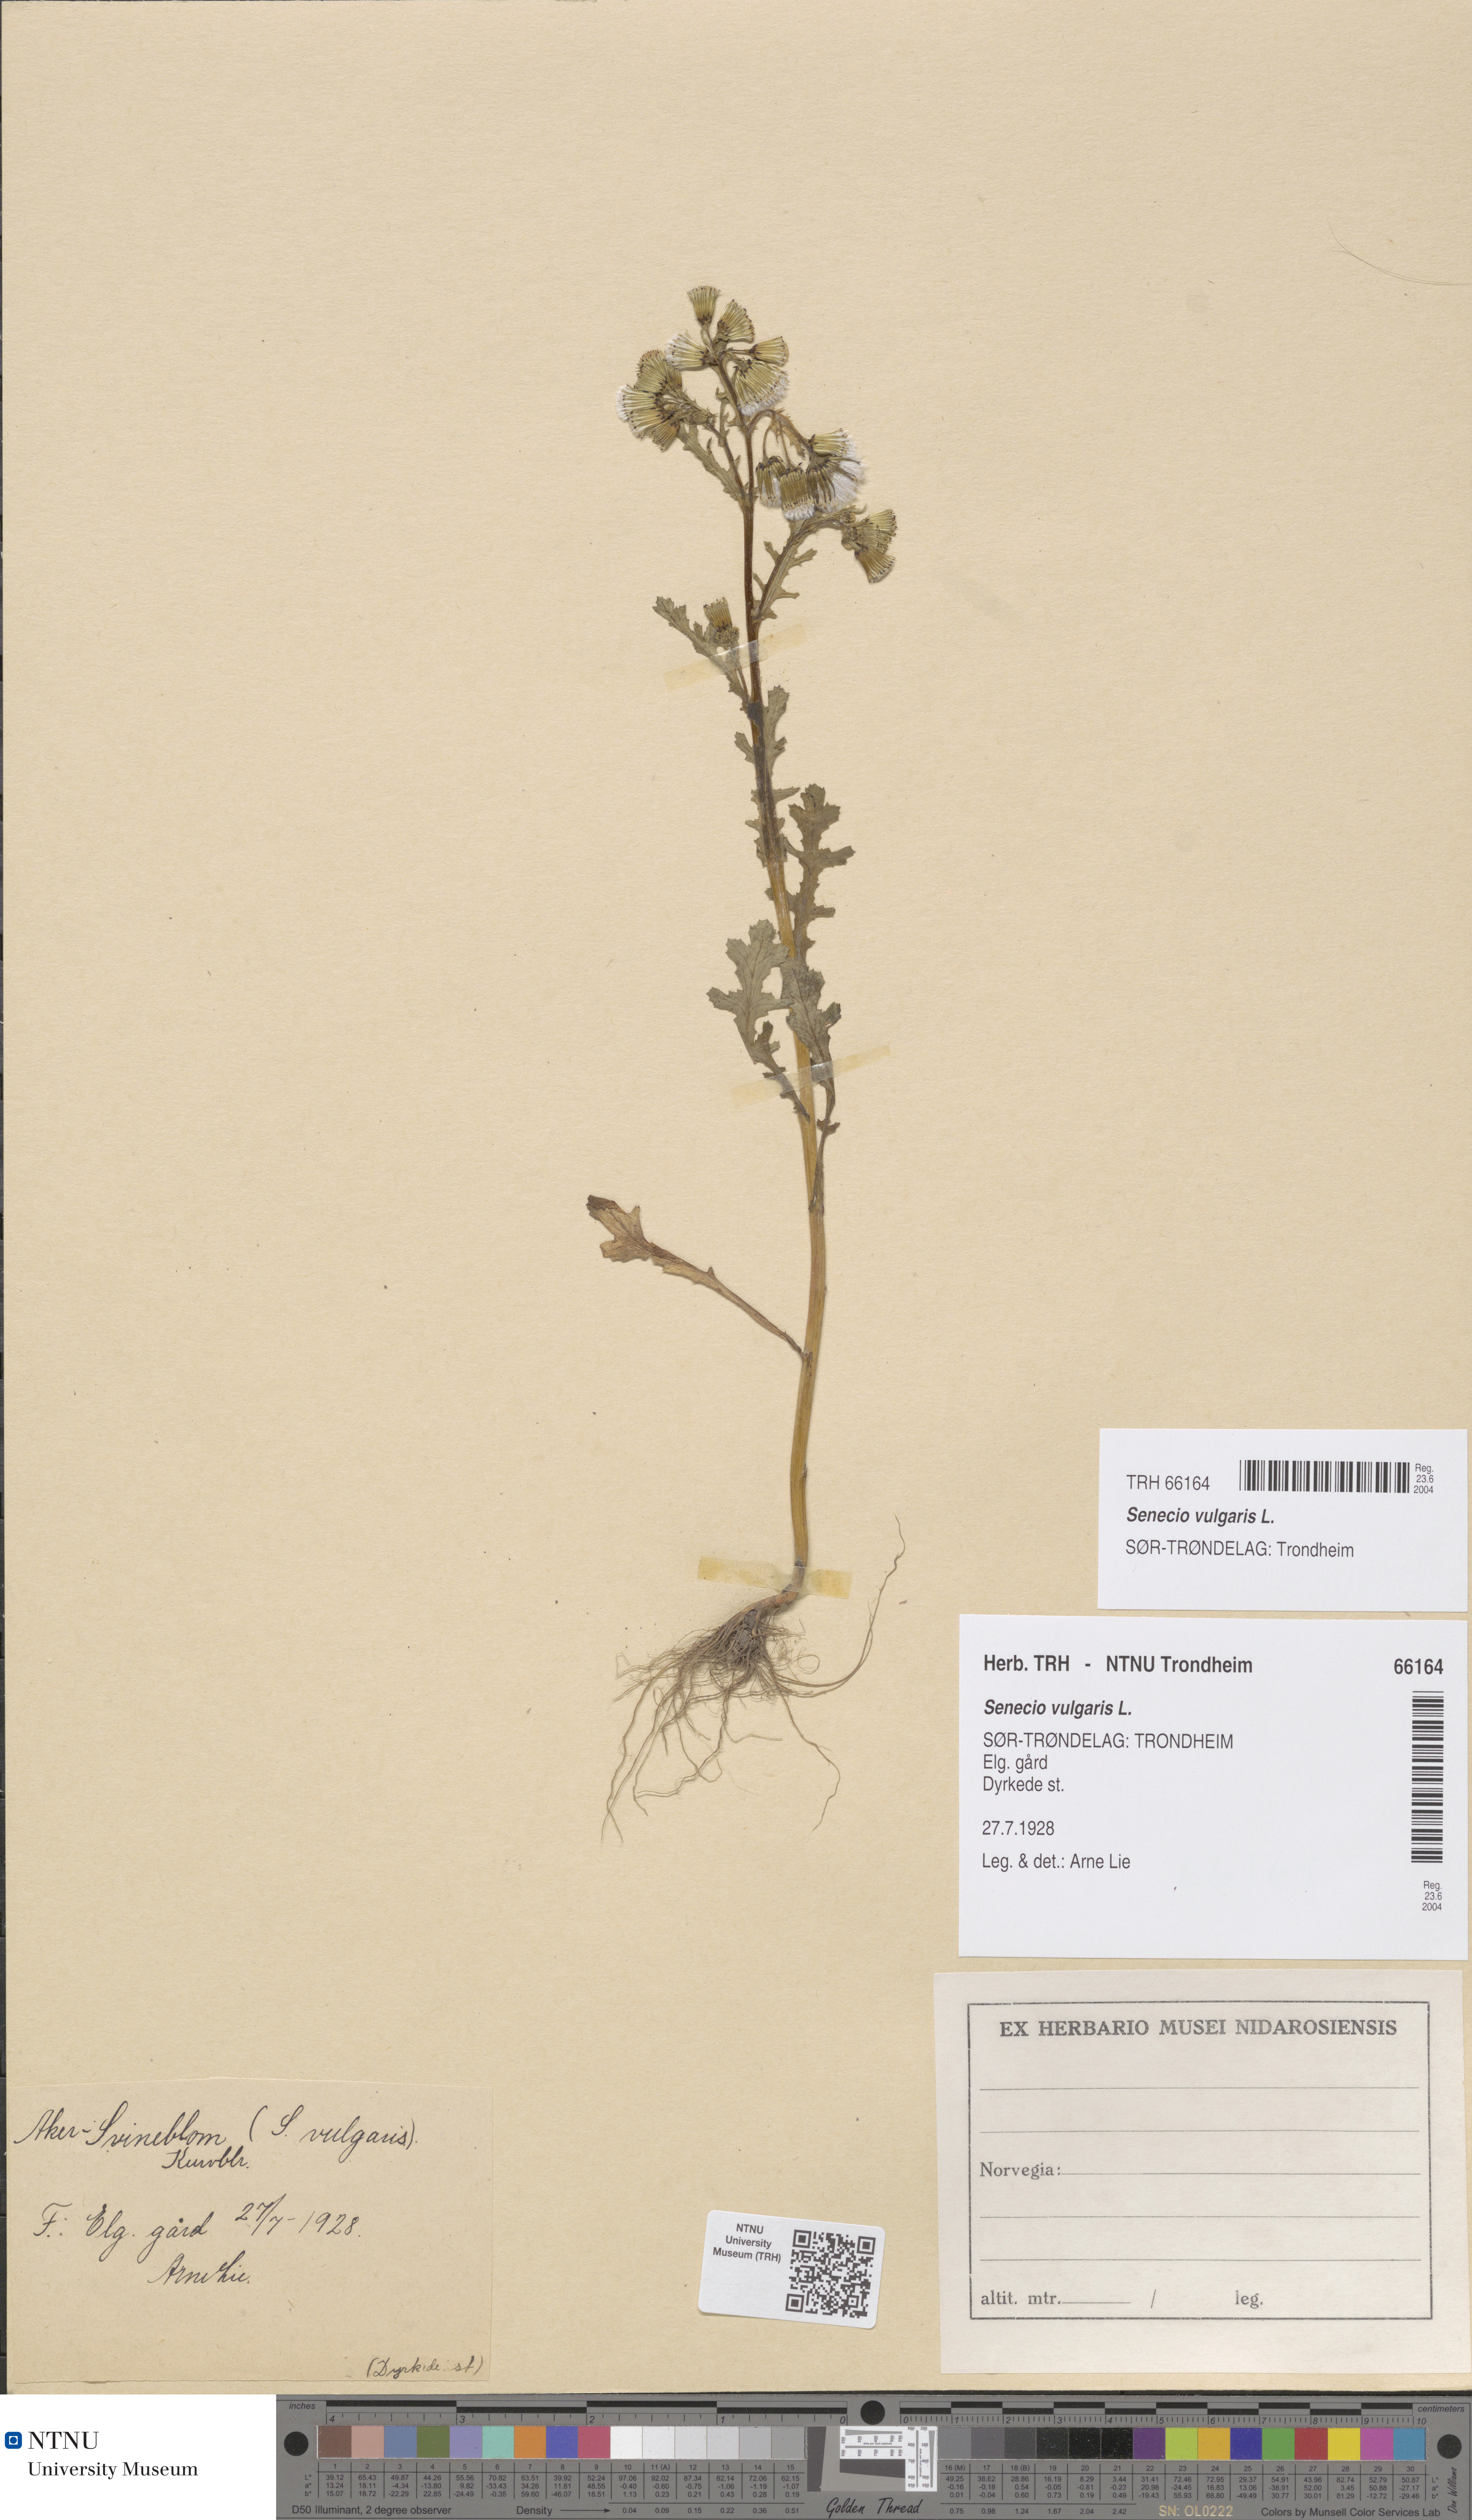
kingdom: Plantae
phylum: Tracheophyta
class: Magnoliopsida
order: Asterales
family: Asteraceae
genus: Senecio
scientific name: Senecio vulgaris
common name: Old-man-in-the-spring
